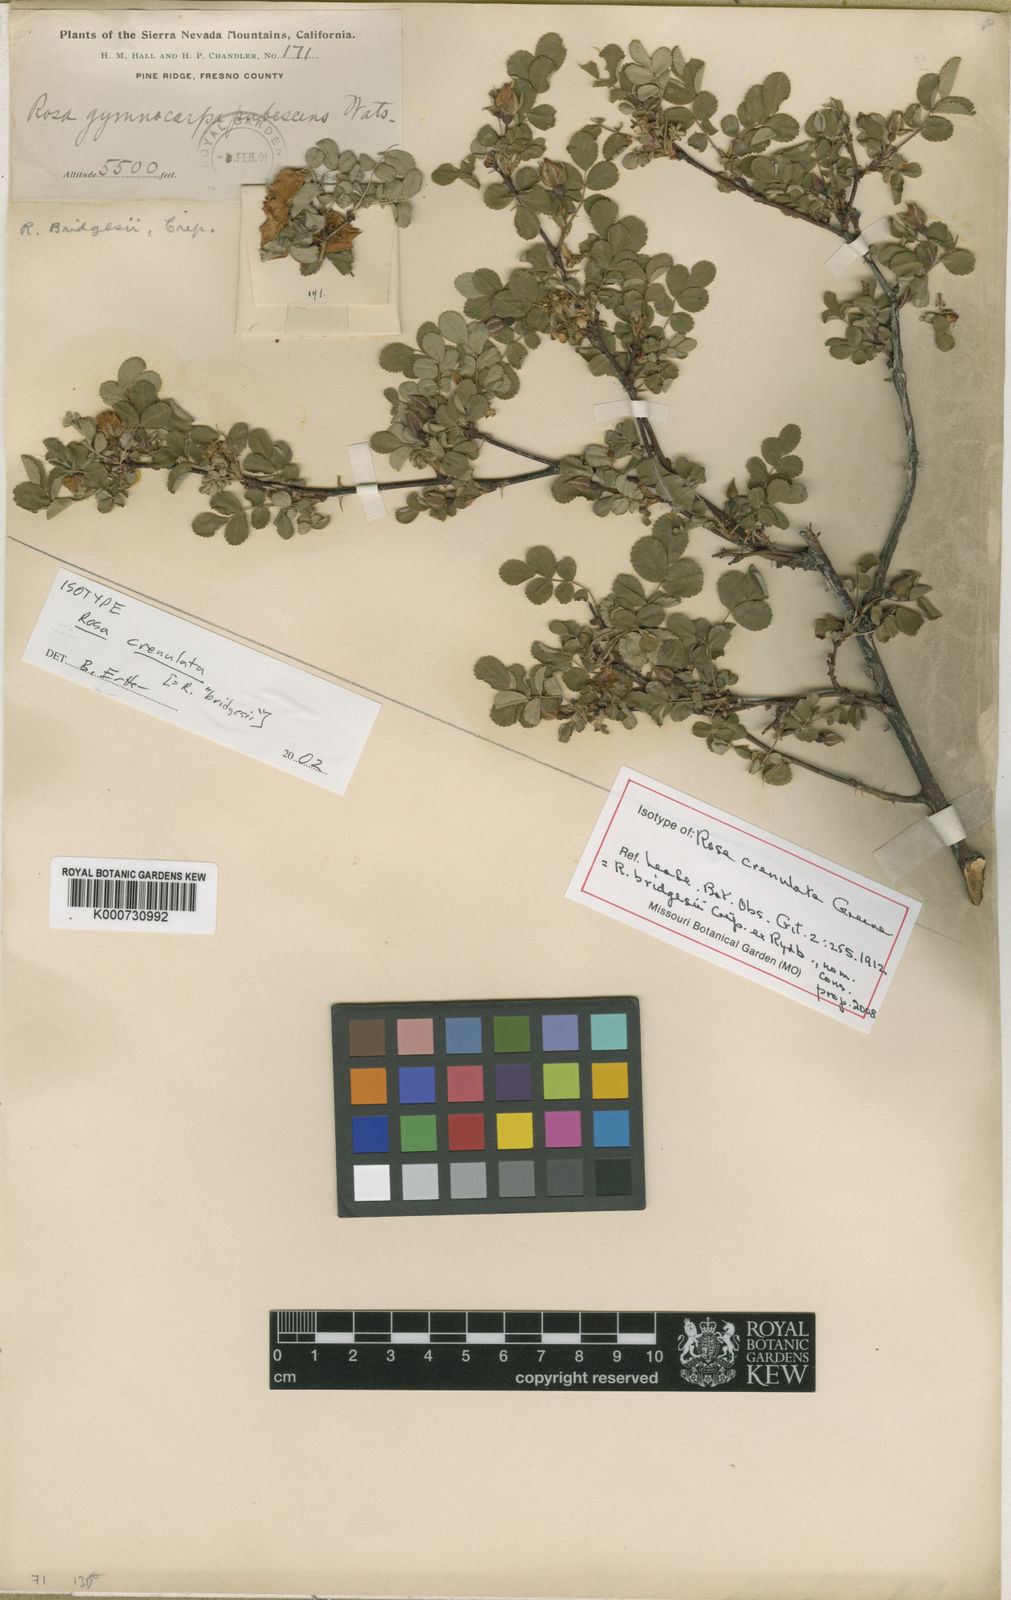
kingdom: Plantae
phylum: Tracheophyta
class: Magnoliopsida
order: Rosales
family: Rosaceae
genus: Rosa
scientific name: Rosa bridgesii
